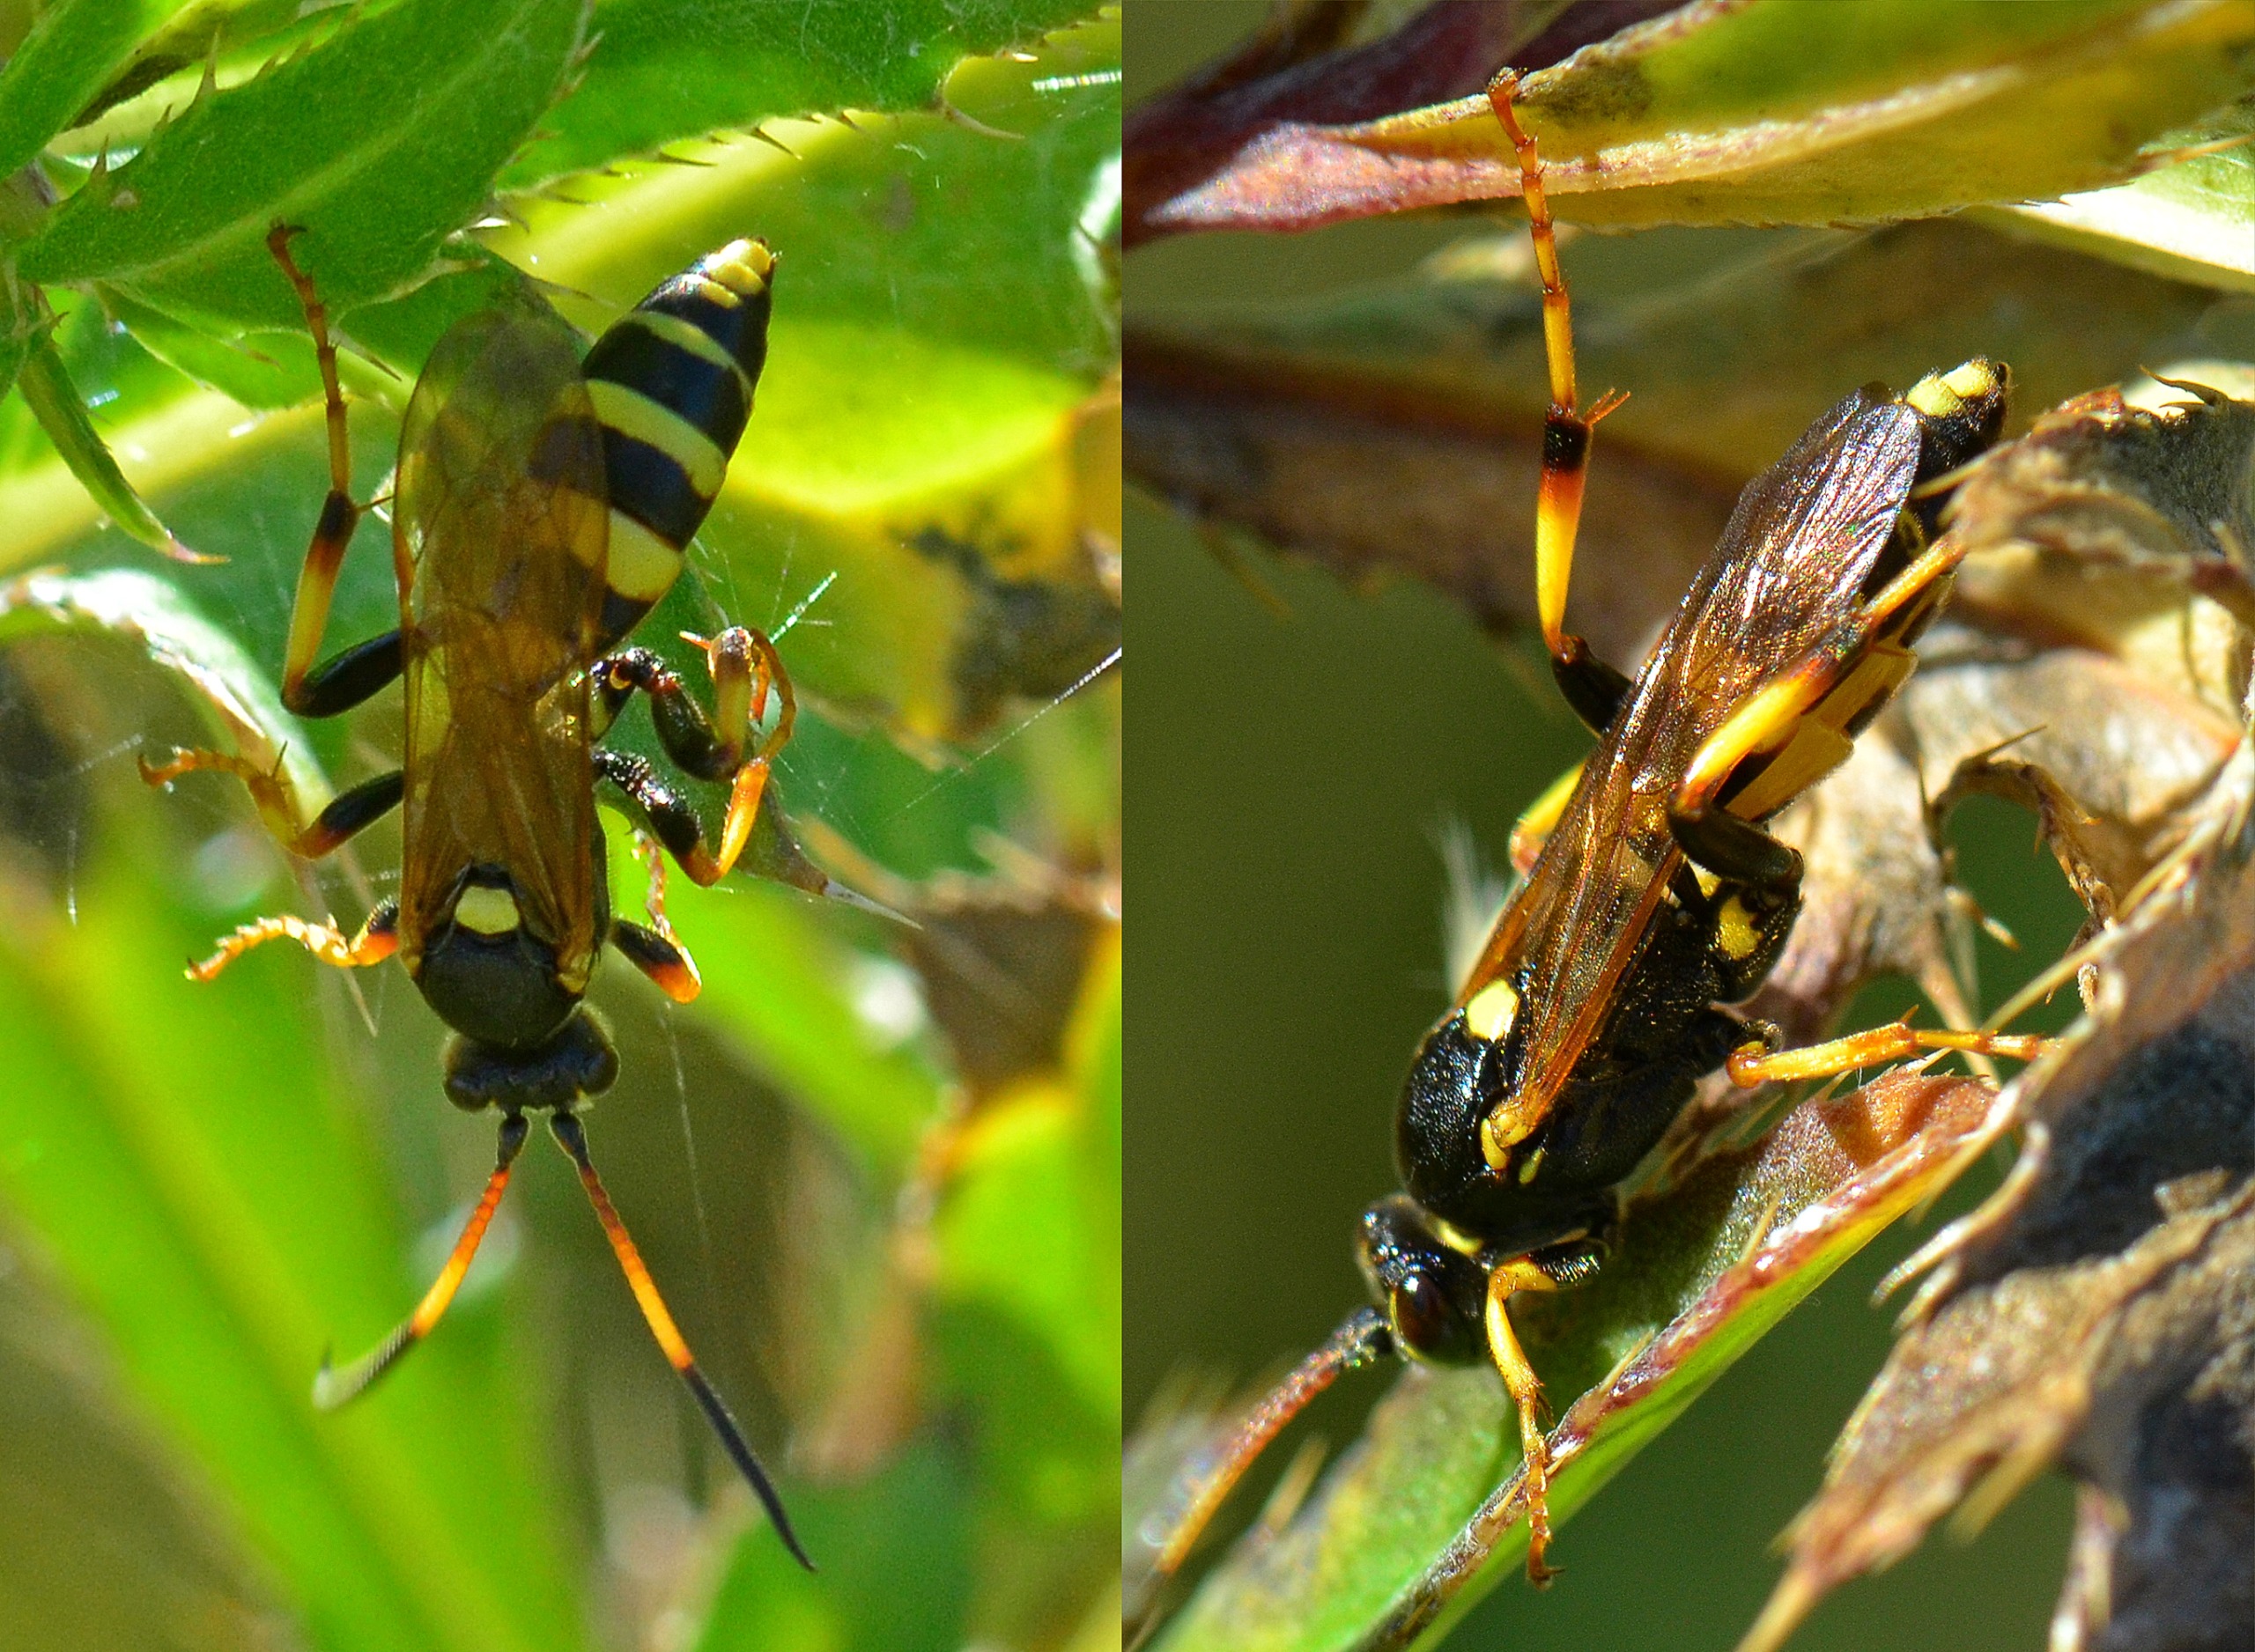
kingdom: Animalia
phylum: Arthropoda
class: Insecta
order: Hymenoptera
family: Ichneumonidae
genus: Ichneumon
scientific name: Ichneumon xanthorius
